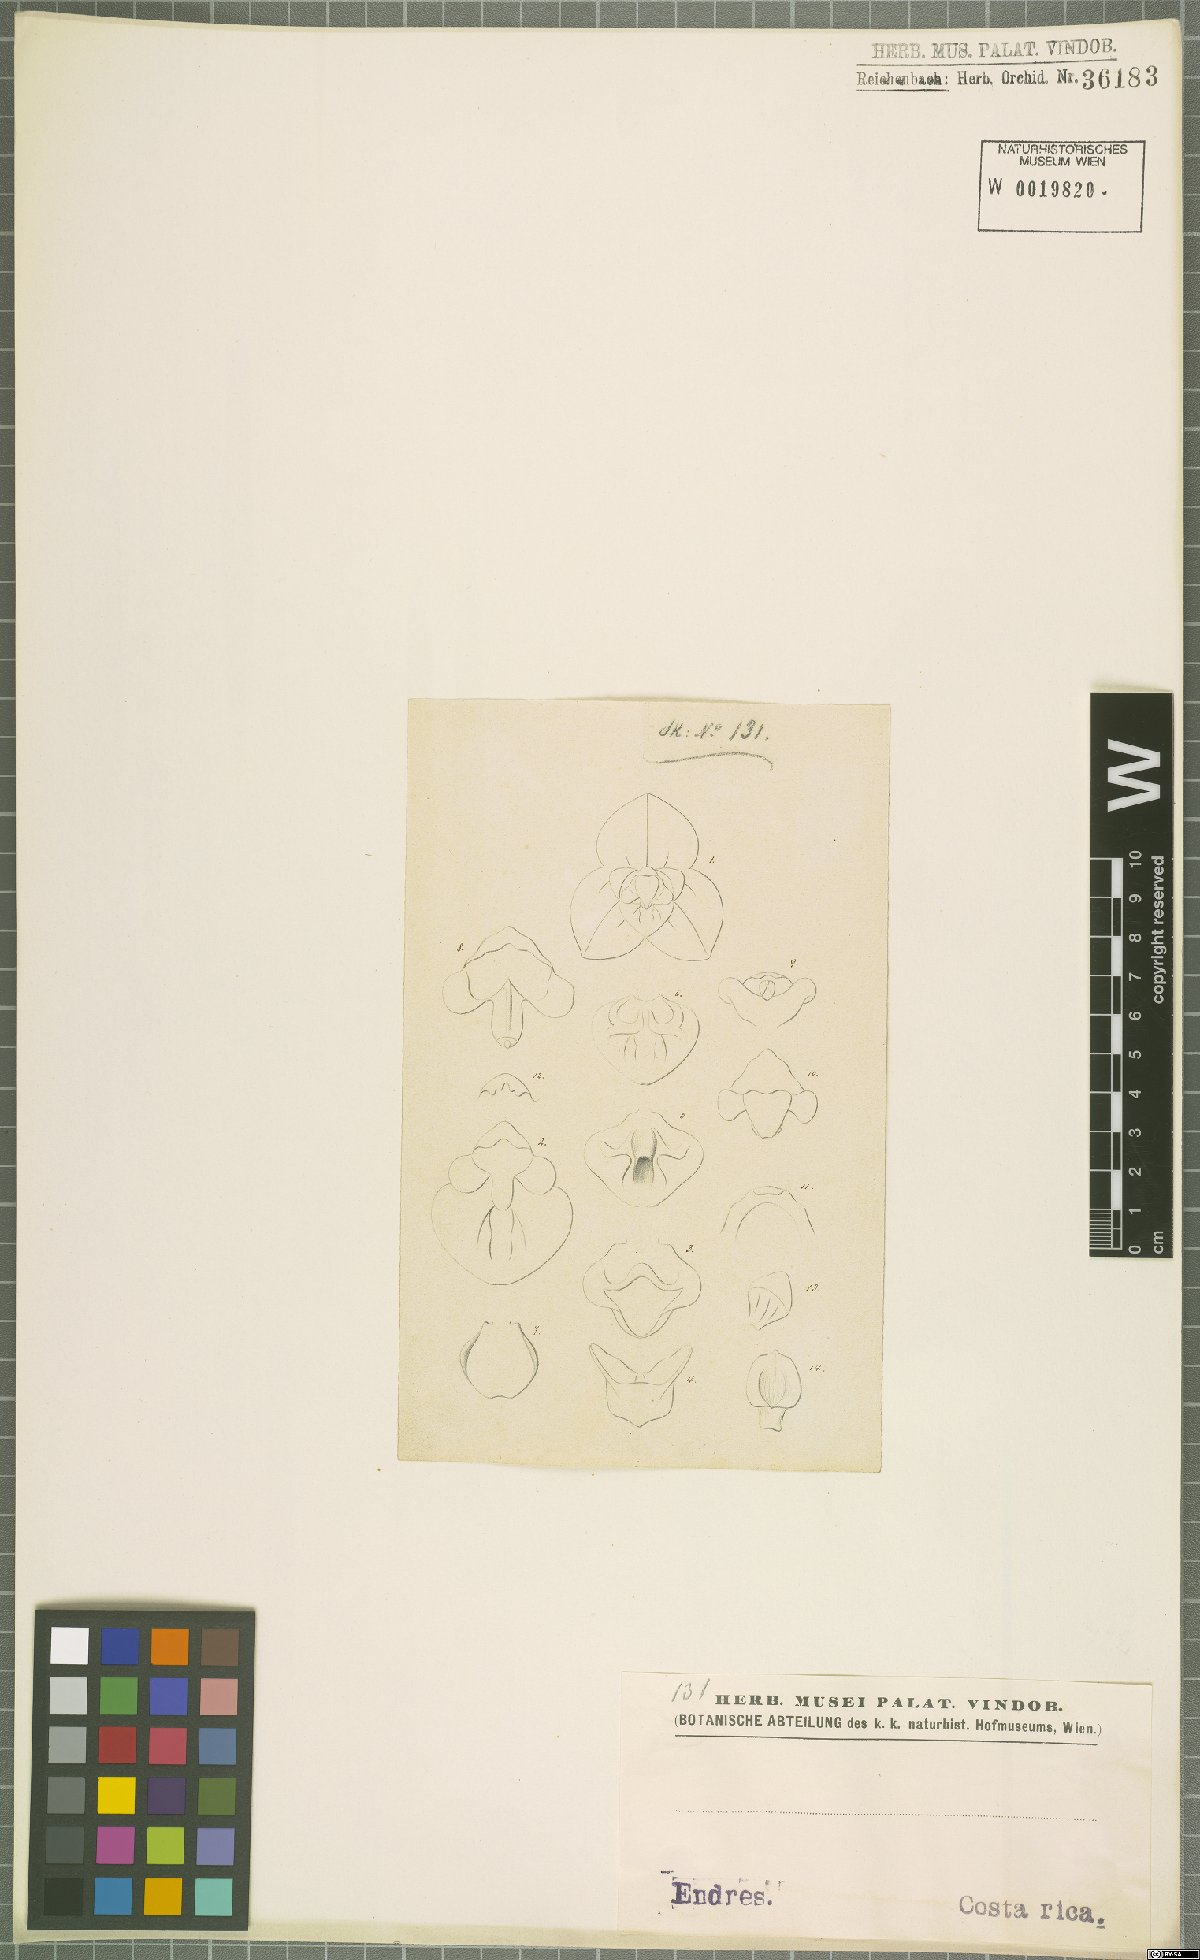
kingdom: Plantae
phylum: Tracheophyta
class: Liliopsida
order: Asparagales
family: Orchidaceae
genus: Stelis
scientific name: Stelis
